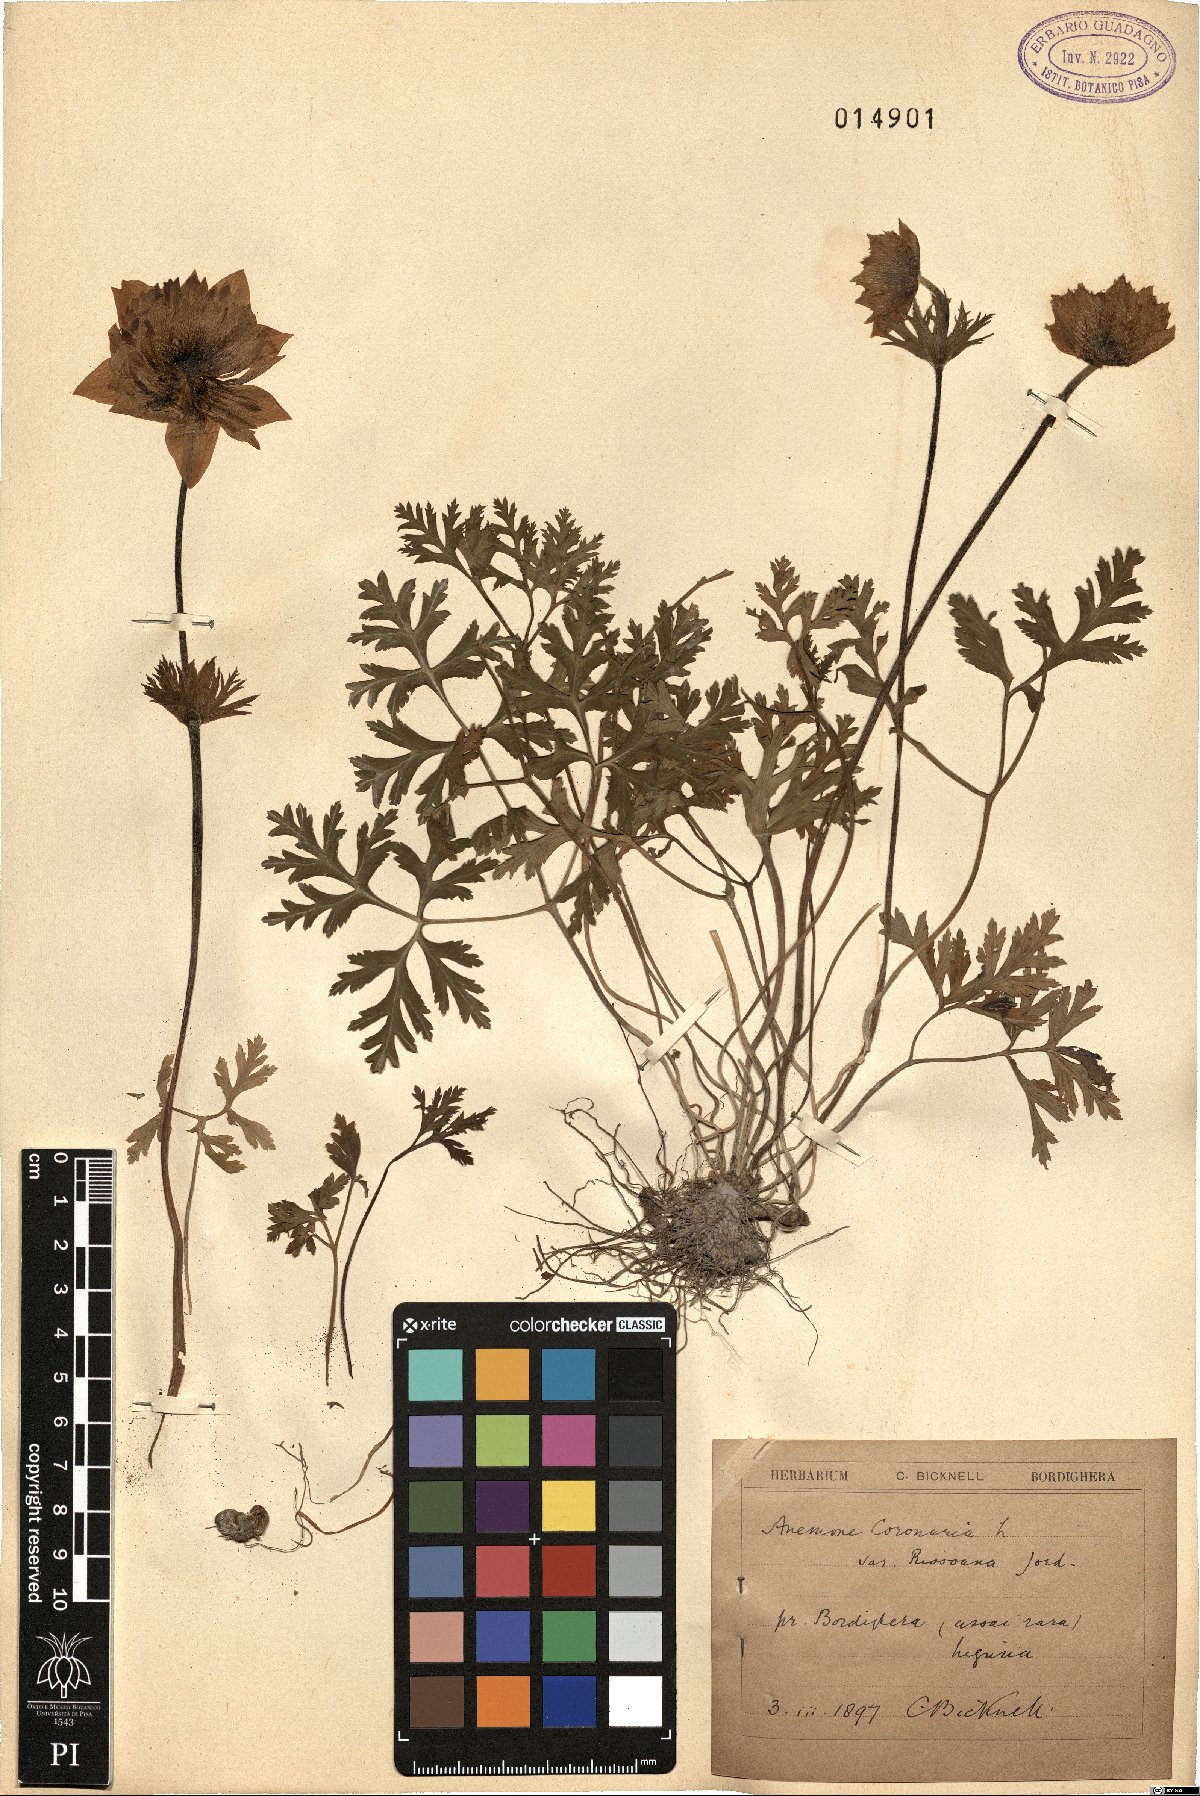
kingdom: Plantae
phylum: Tracheophyta
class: Magnoliopsida
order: Ranunculales
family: Ranunculaceae
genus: Anemone
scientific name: Anemone coronaria
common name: Poppy anemone
